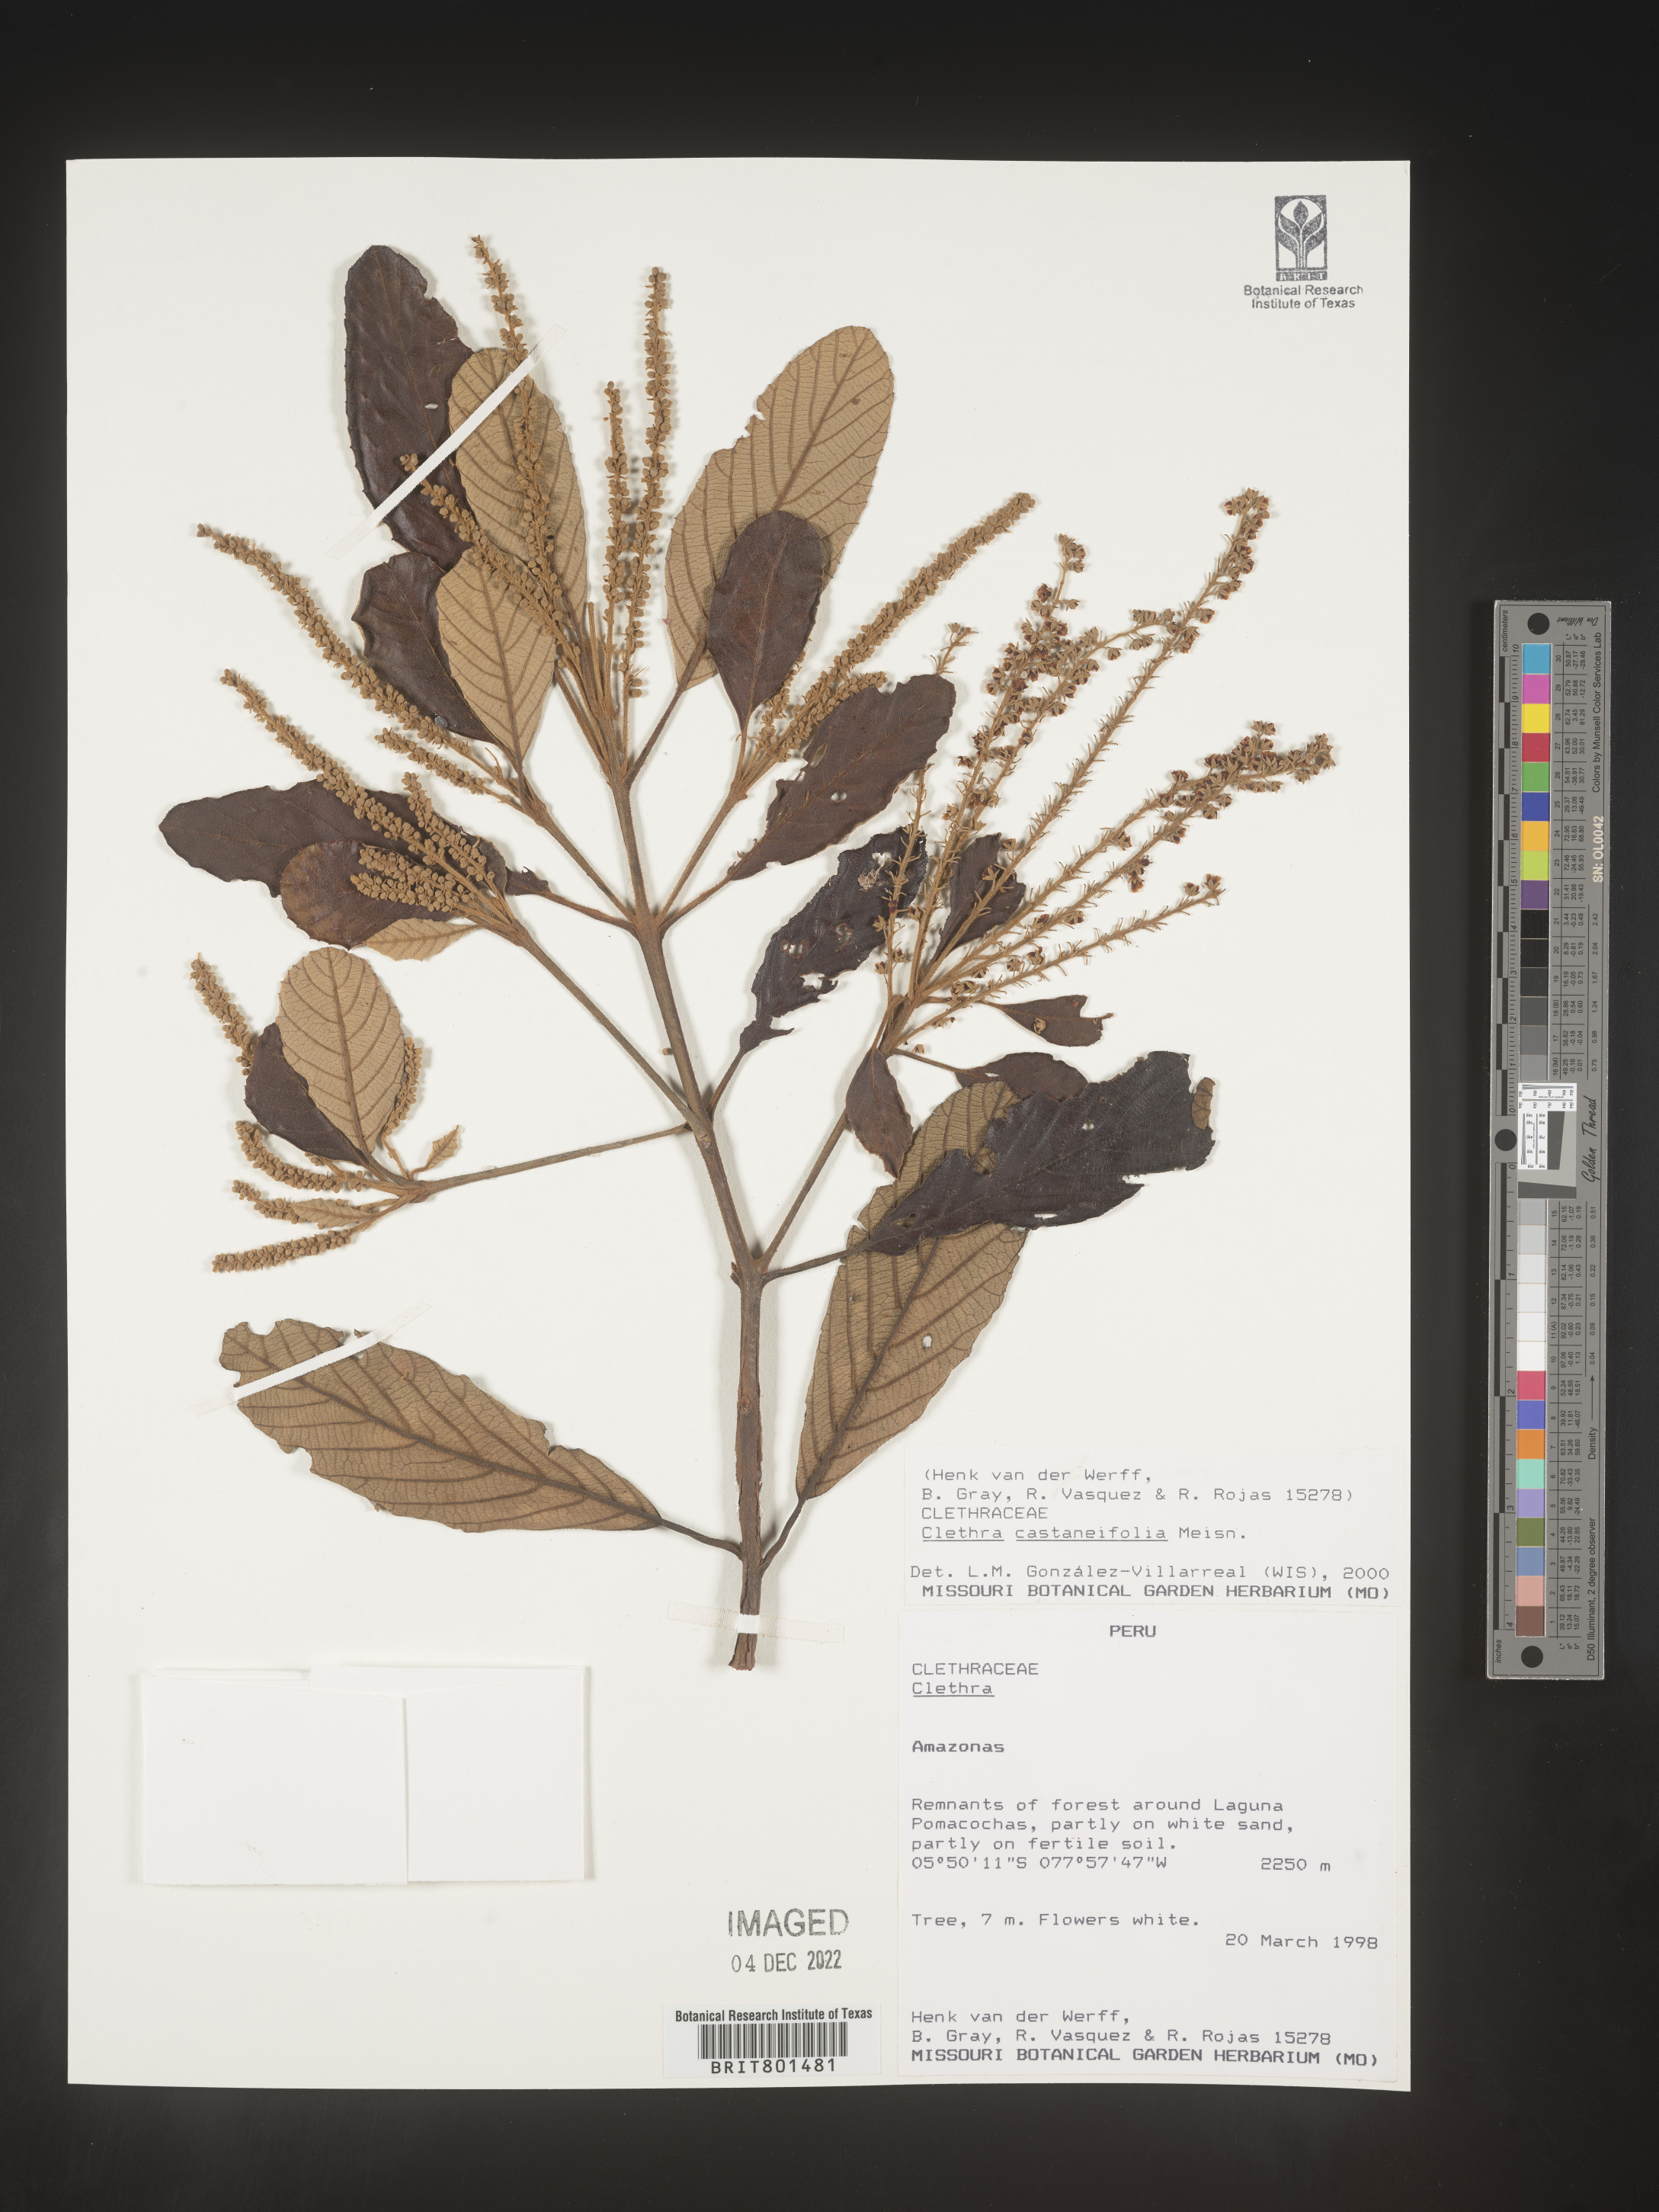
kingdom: Plantae
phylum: Tracheophyta
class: Magnoliopsida
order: Ericales
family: Clethraceae
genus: Clethra
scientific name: Clethra
